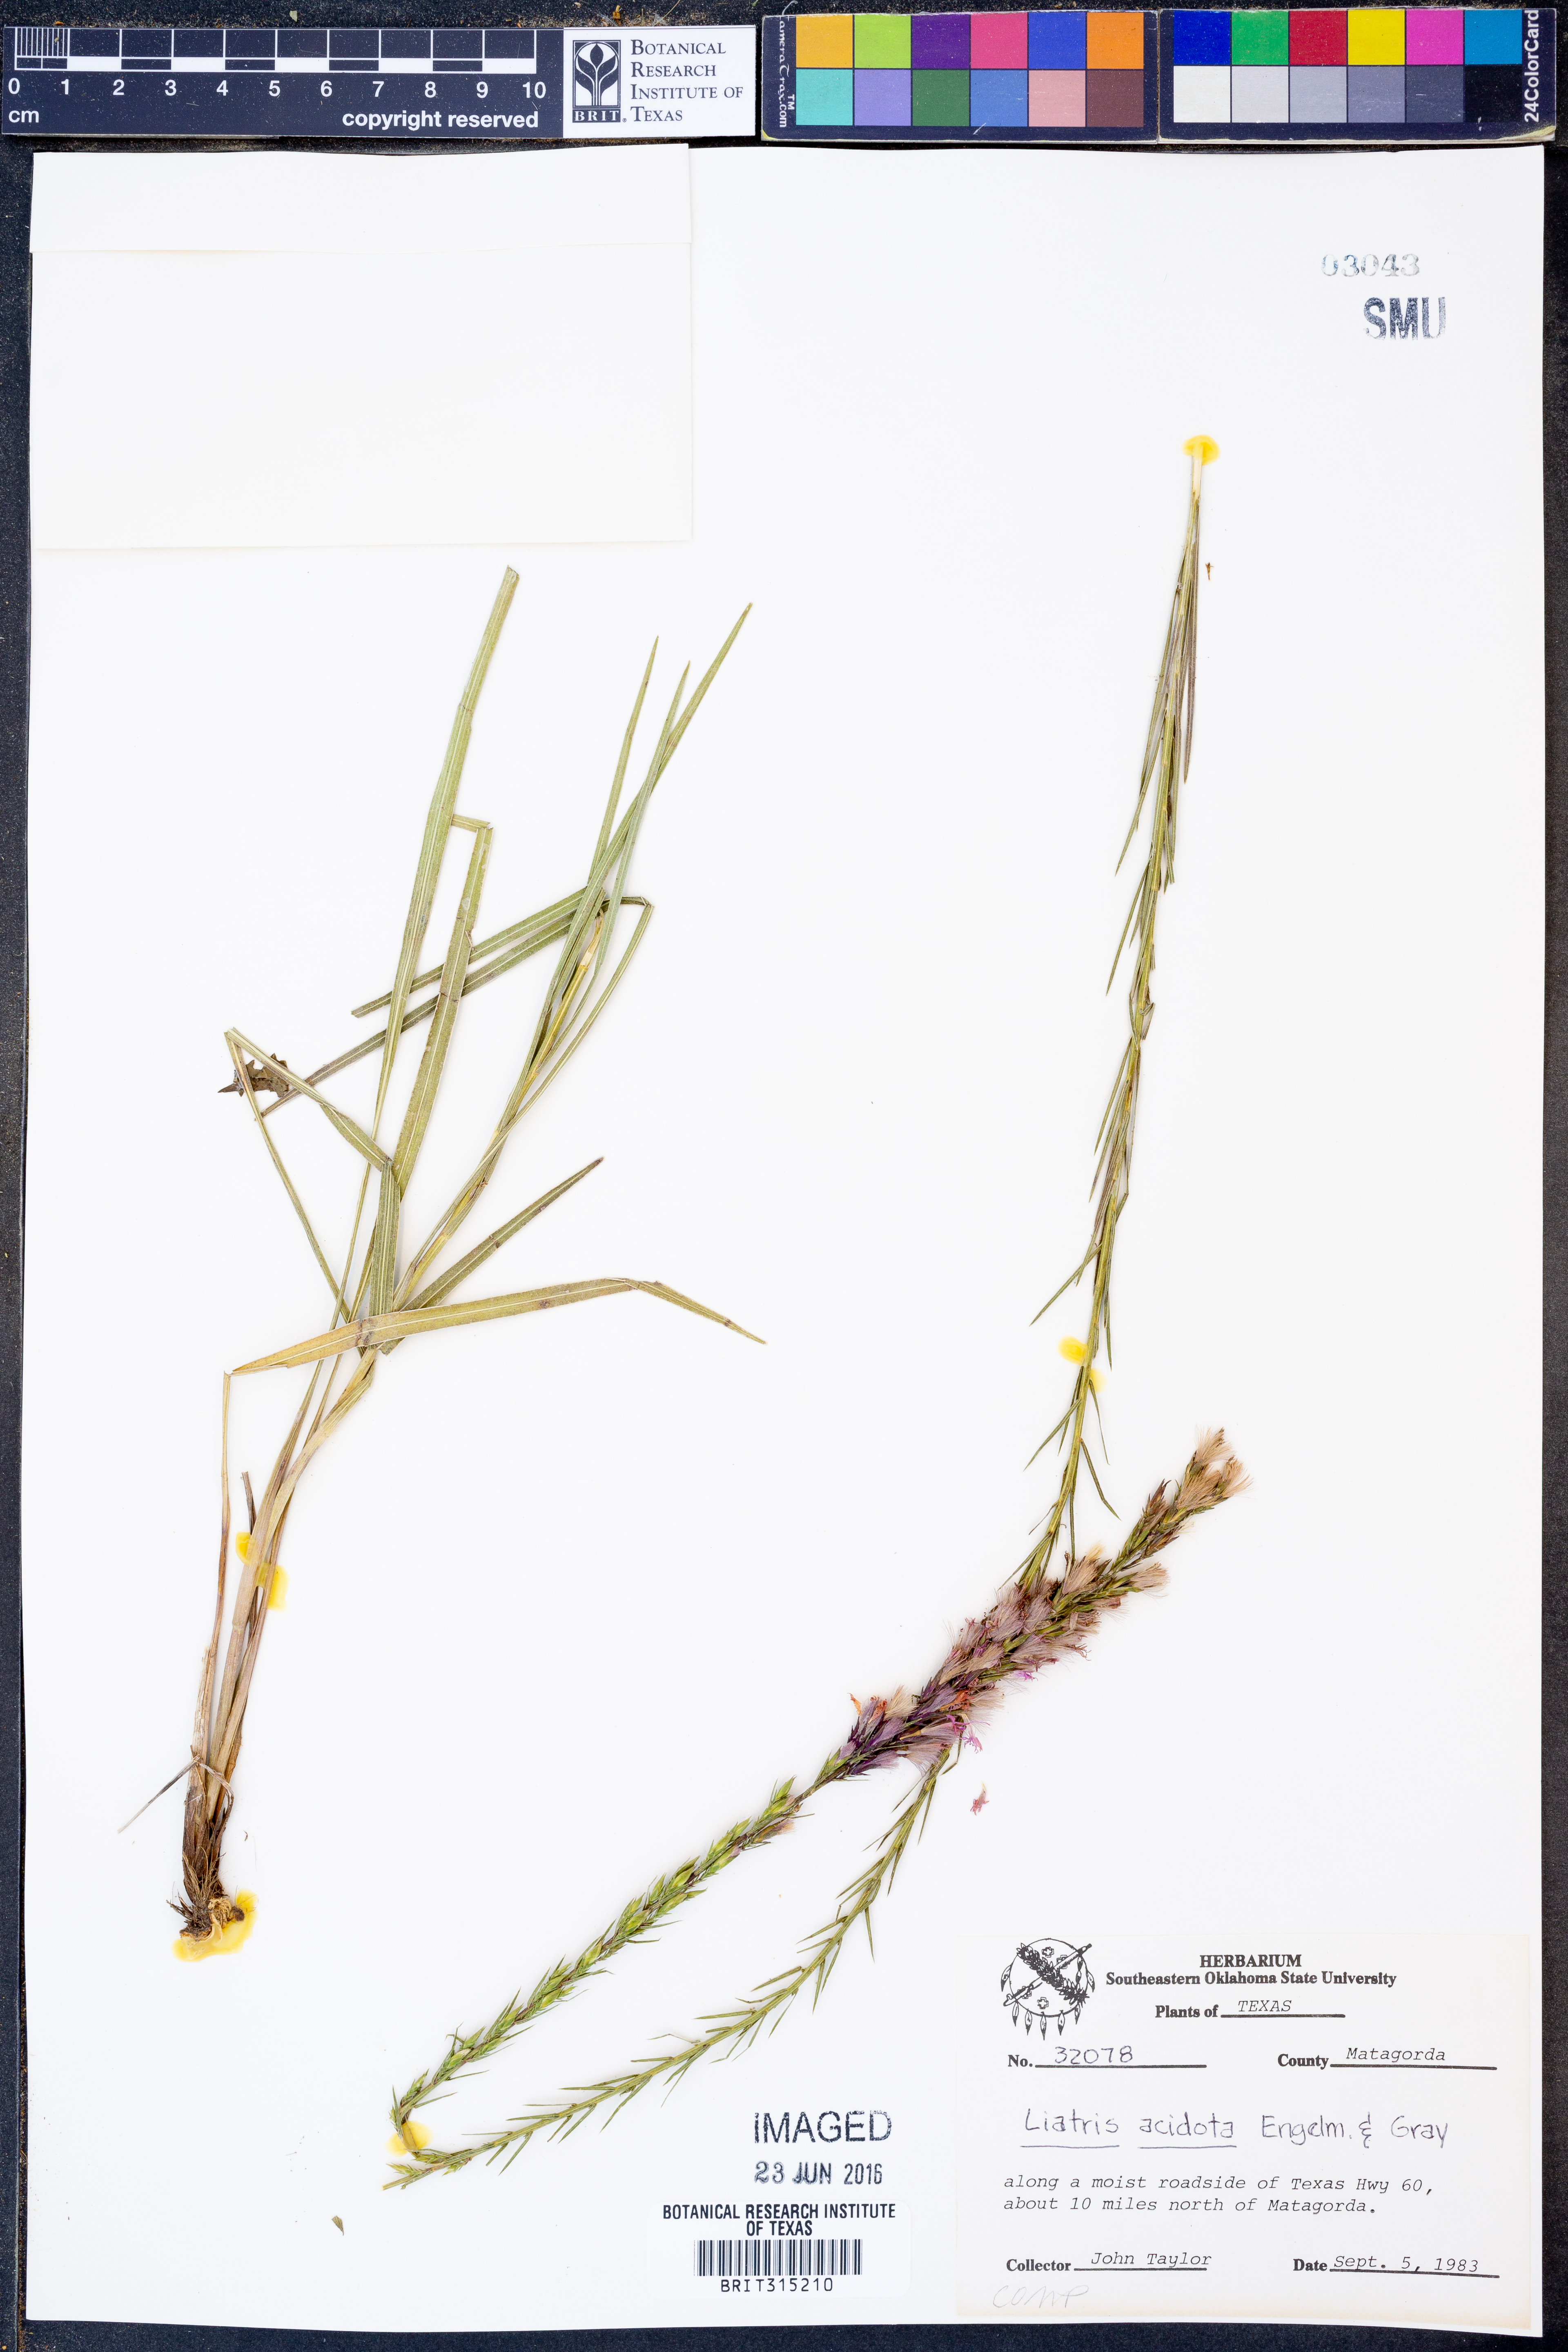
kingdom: Plantae
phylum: Tracheophyta
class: Magnoliopsida
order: Asterales
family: Asteraceae
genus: Liatris
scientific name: Liatris acidota
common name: Gulf coast gayfeather
